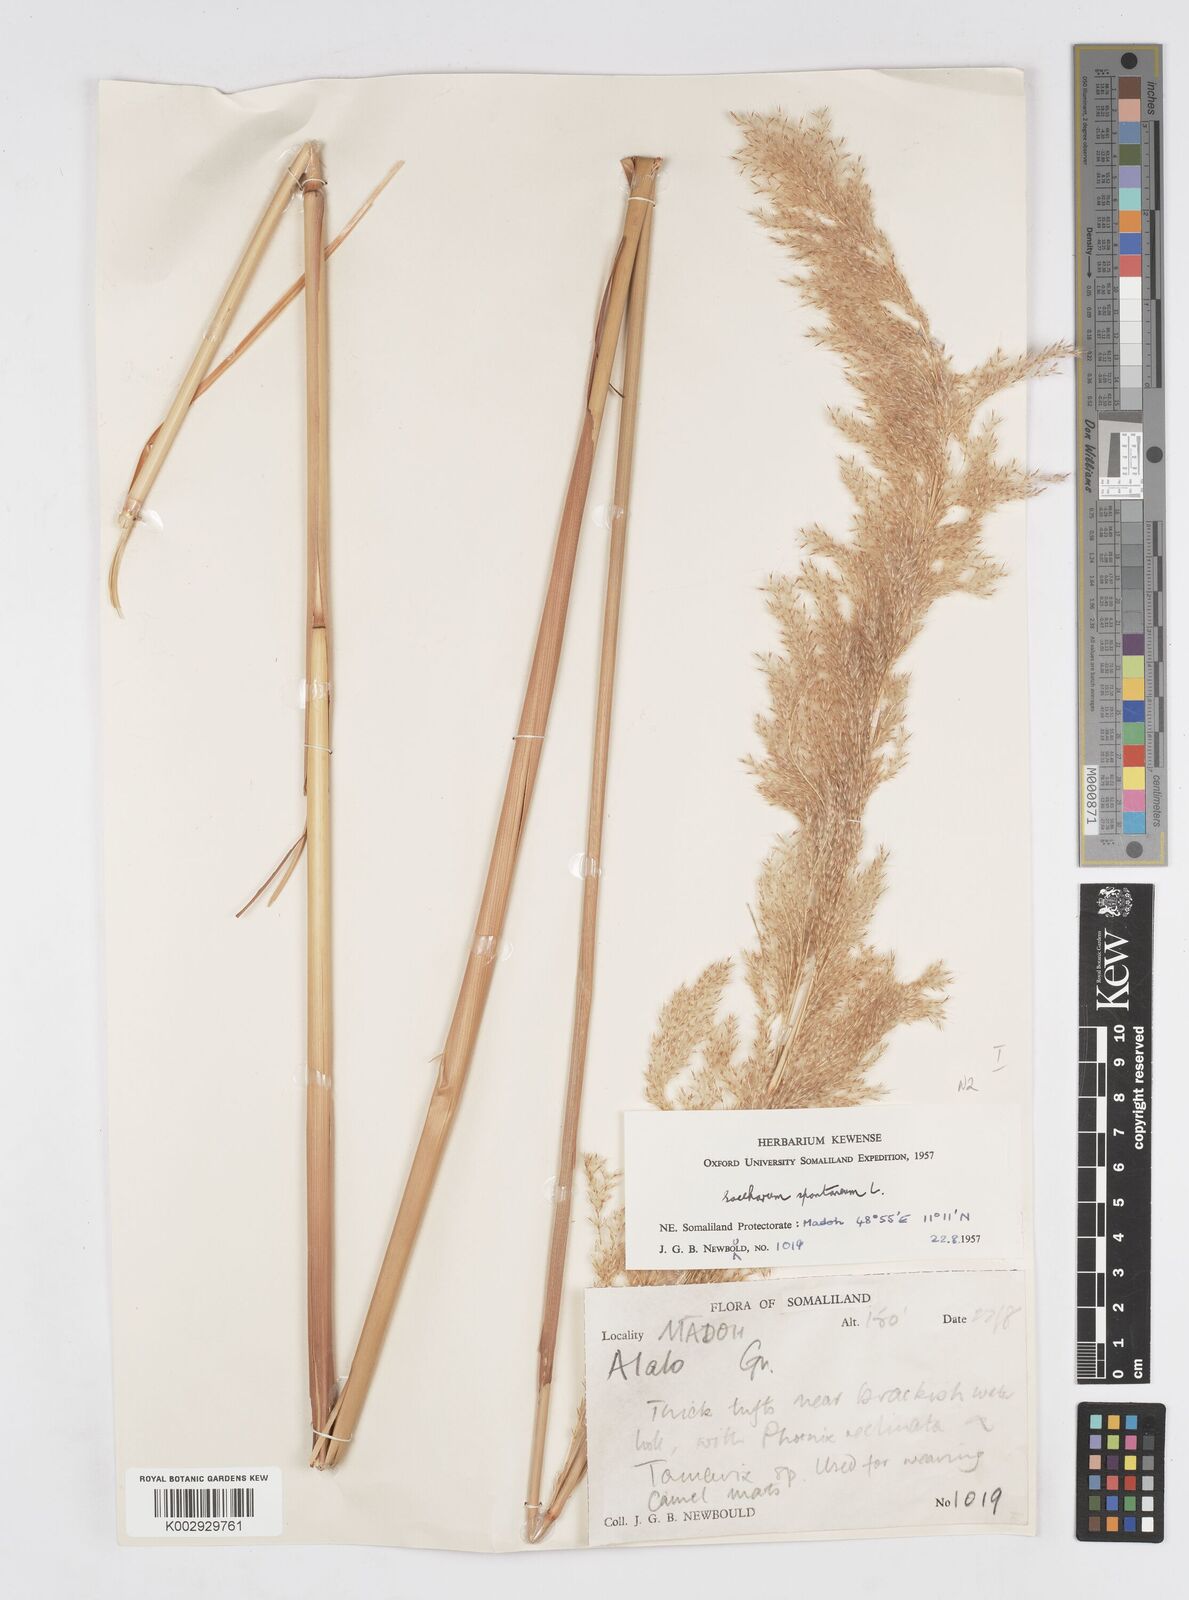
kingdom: Plantae
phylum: Tracheophyta
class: Liliopsida
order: Poales
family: Poaceae
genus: Tripidium
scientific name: Tripidium ravennae
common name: Ravenna grass
